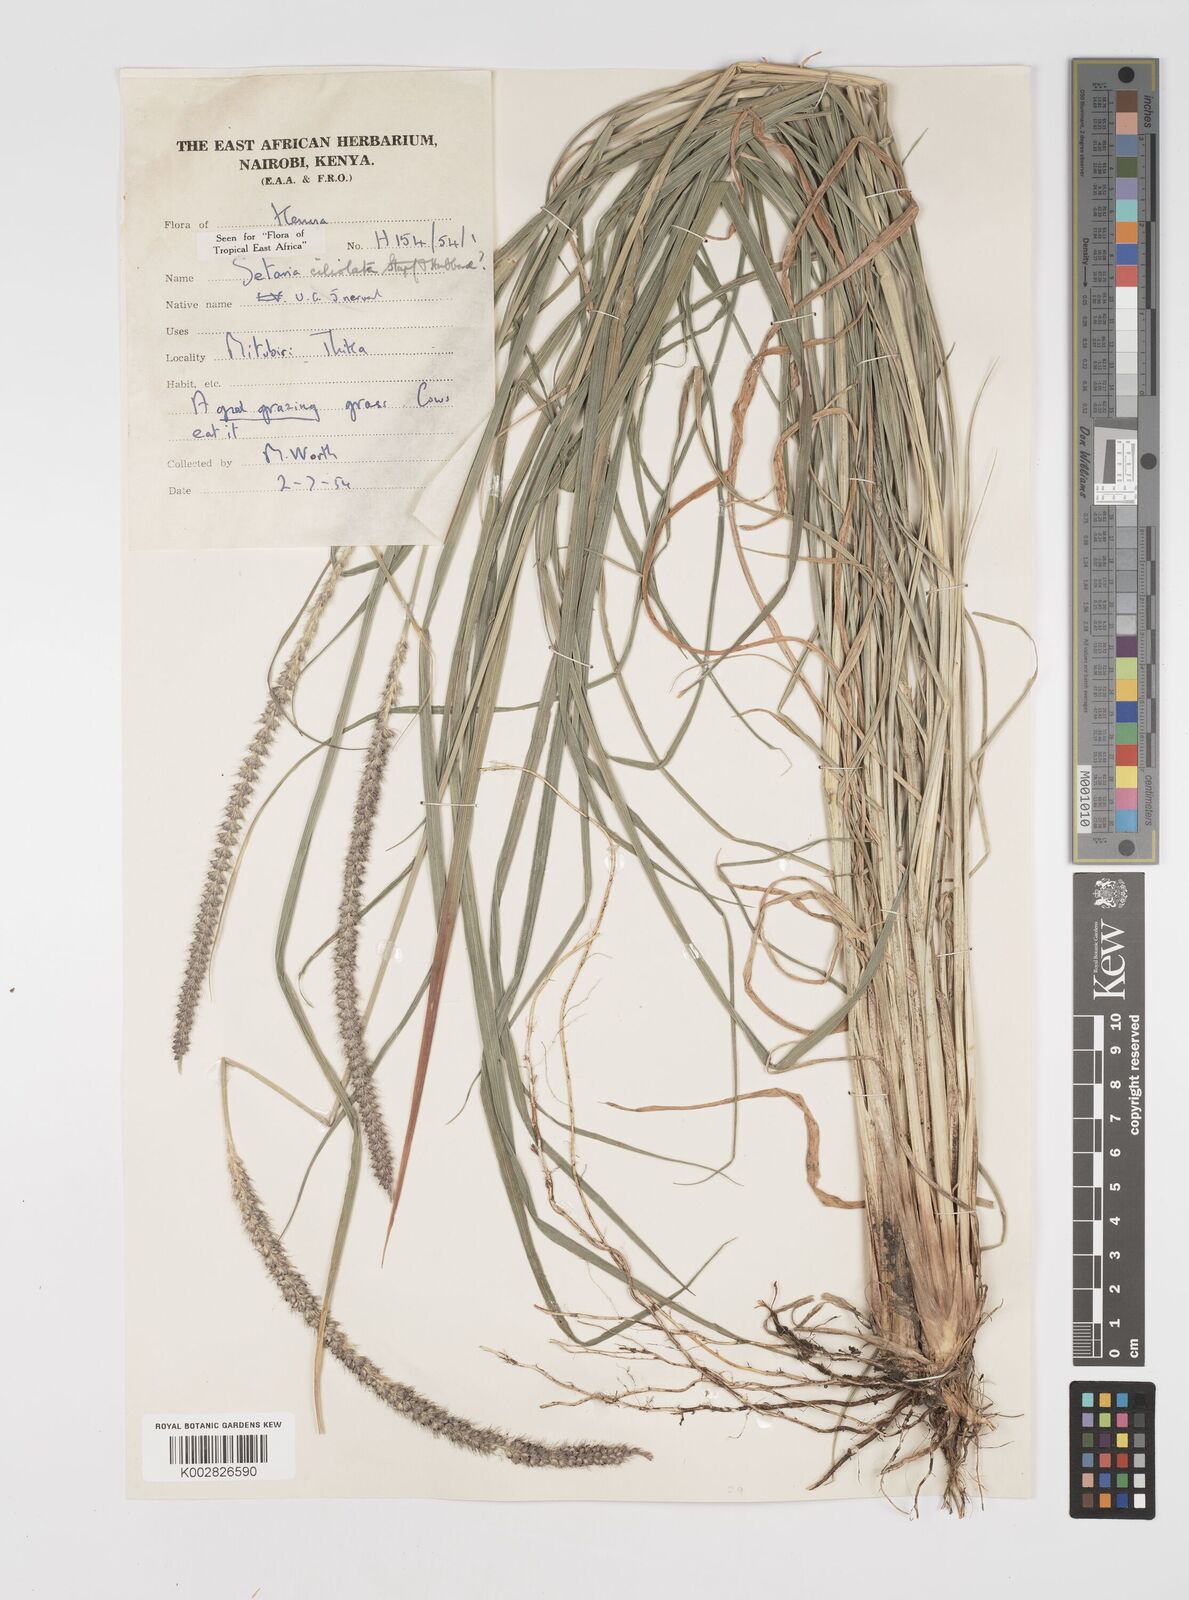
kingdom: Plantae
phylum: Tracheophyta
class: Liliopsida
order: Poales
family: Poaceae
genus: Setaria
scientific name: Setaria incrassata
